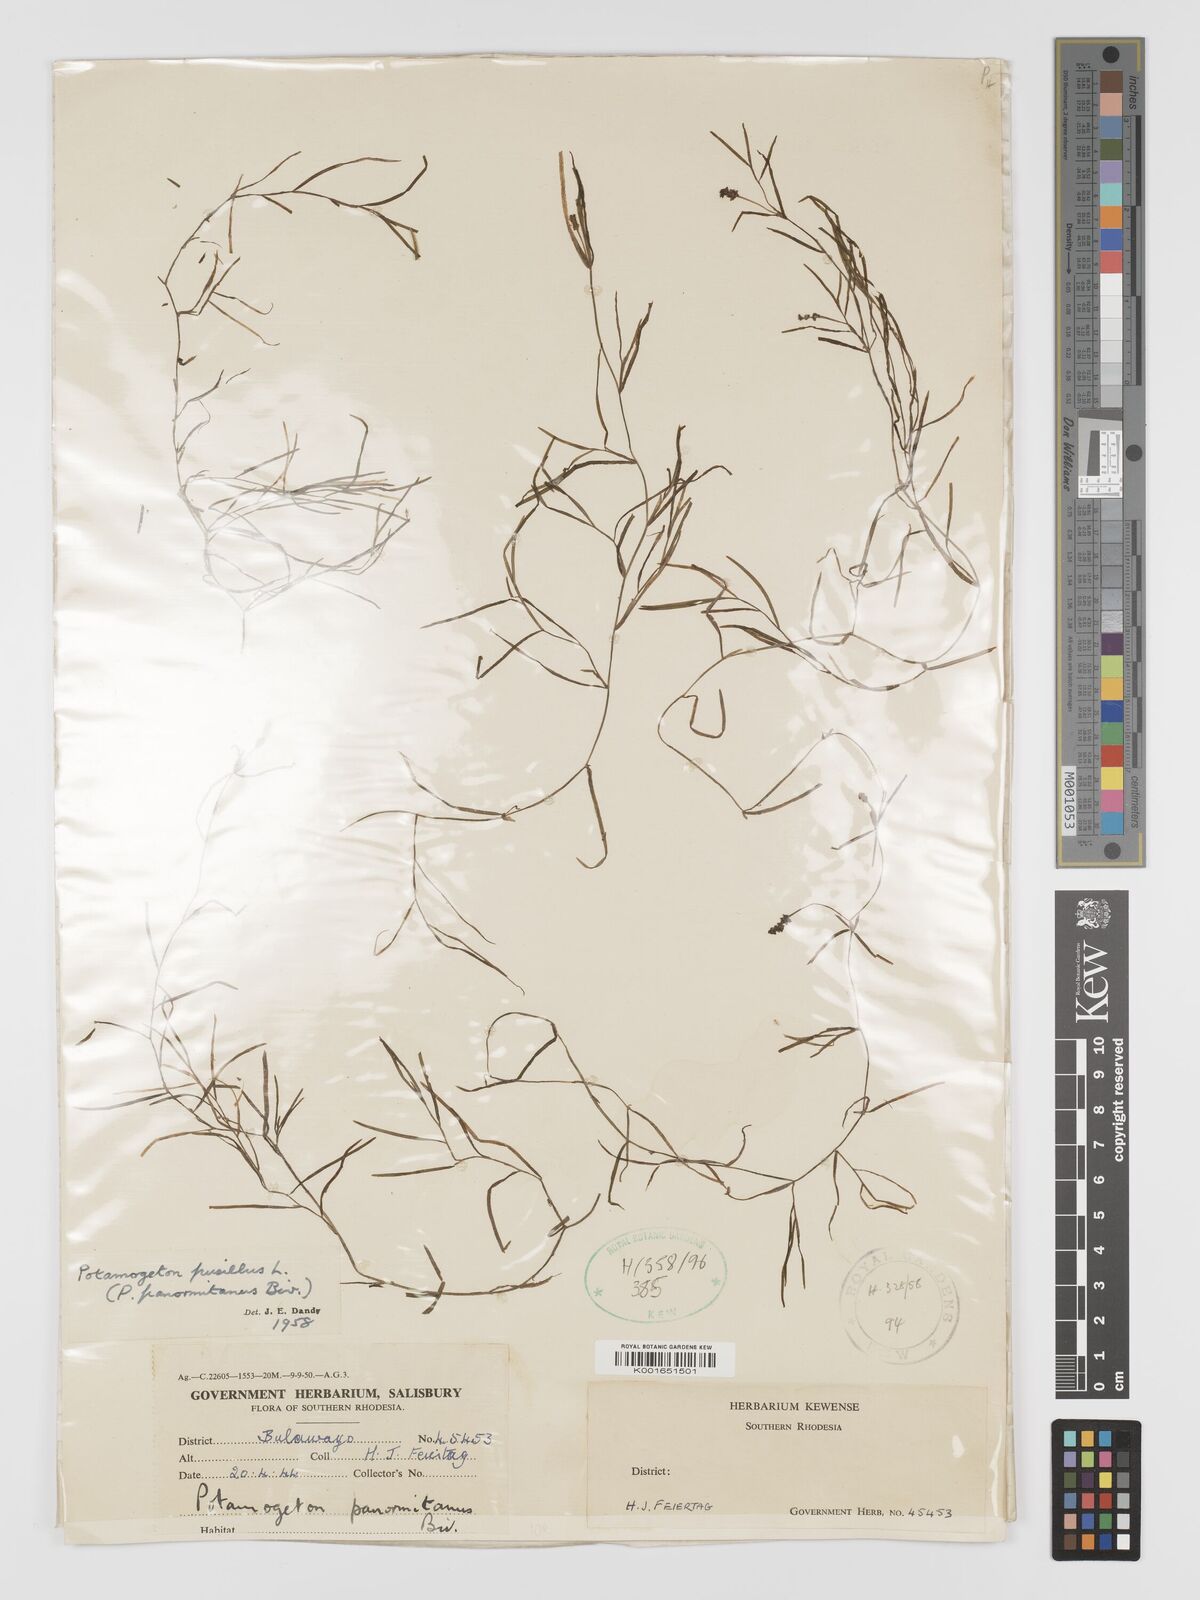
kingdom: Plantae
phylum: Tracheophyta
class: Liliopsida
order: Alismatales
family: Potamogetonaceae
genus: Potamogeton
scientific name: Potamogeton pusillus
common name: Lesser pondweed
